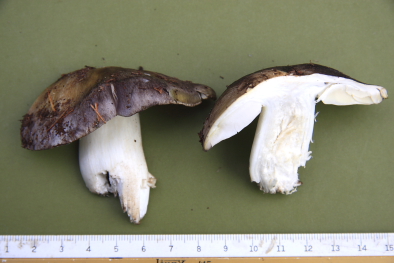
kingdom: Fungi
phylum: Basidiomycota
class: Agaricomycetes
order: Agaricales
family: Tricholomataceae
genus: Tricholoma
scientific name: Tricholoma portentosum
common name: grå ridderhat
